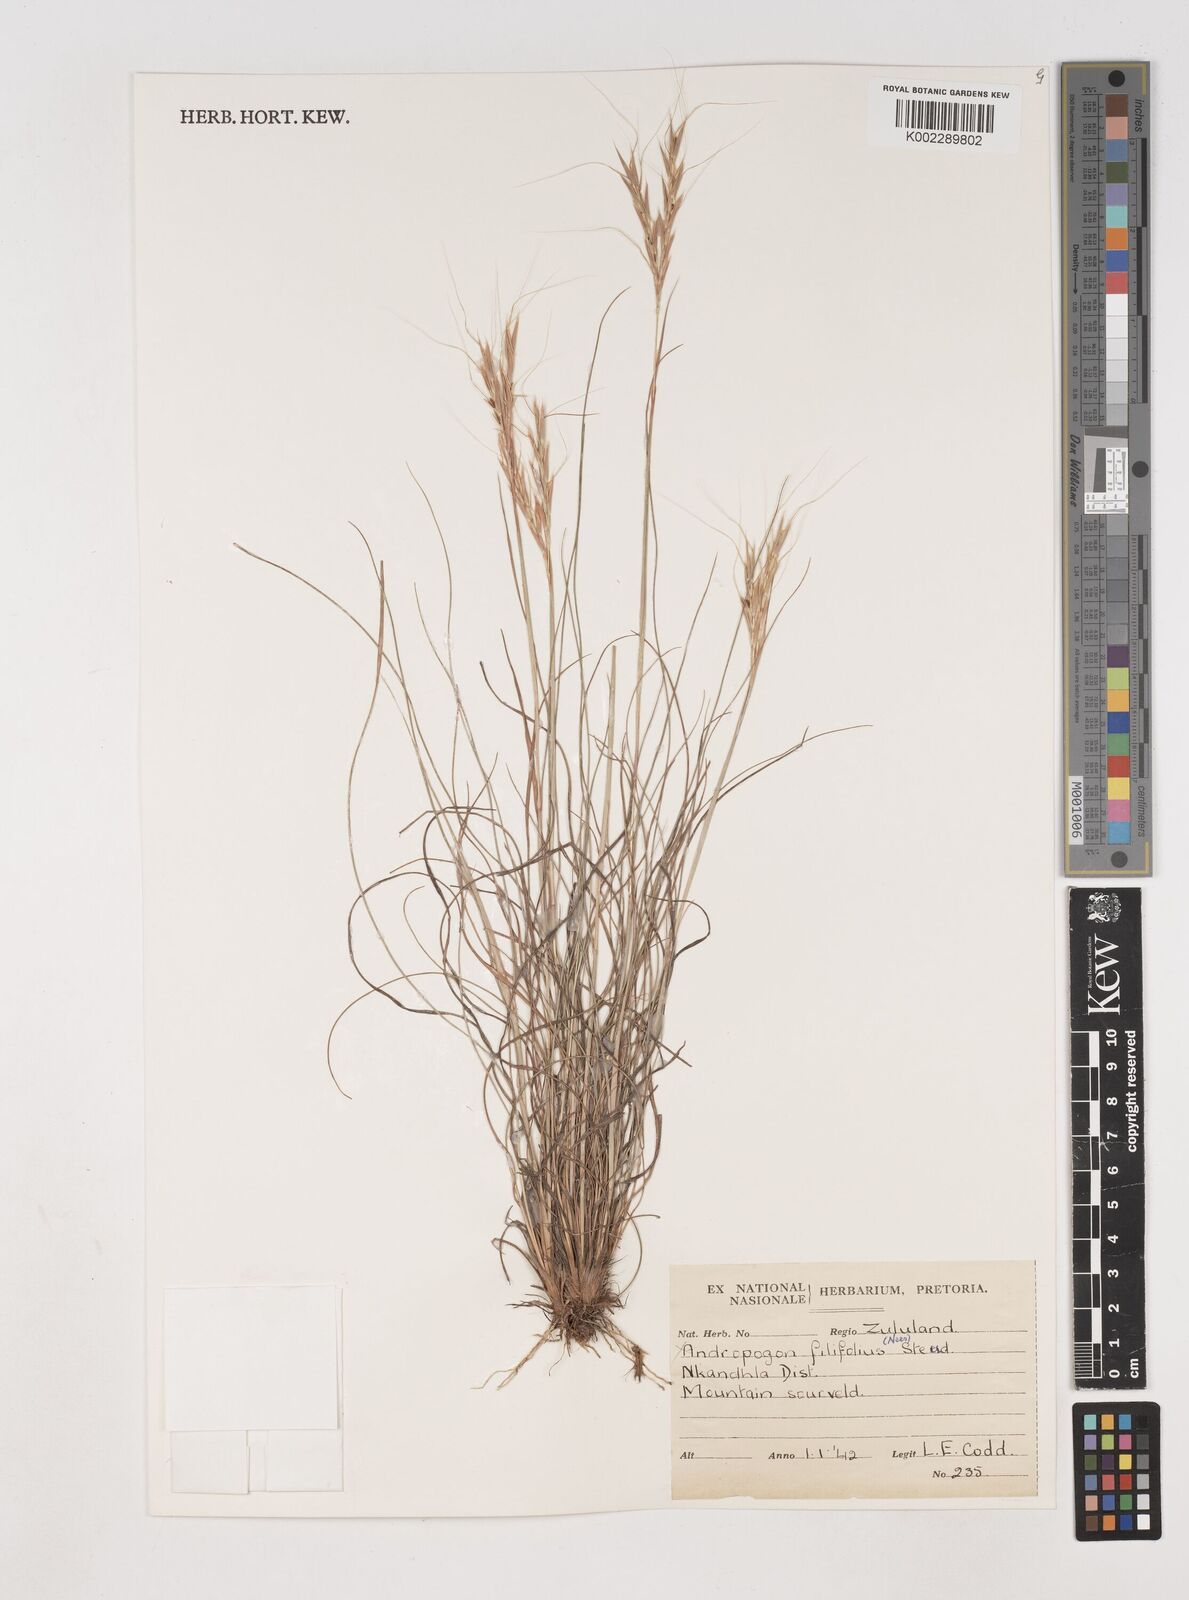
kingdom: Plantae
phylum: Tracheophyta
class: Liliopsida
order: Poales
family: Poaceae
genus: Diheteropogon
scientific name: Diheteropogon filifolius
